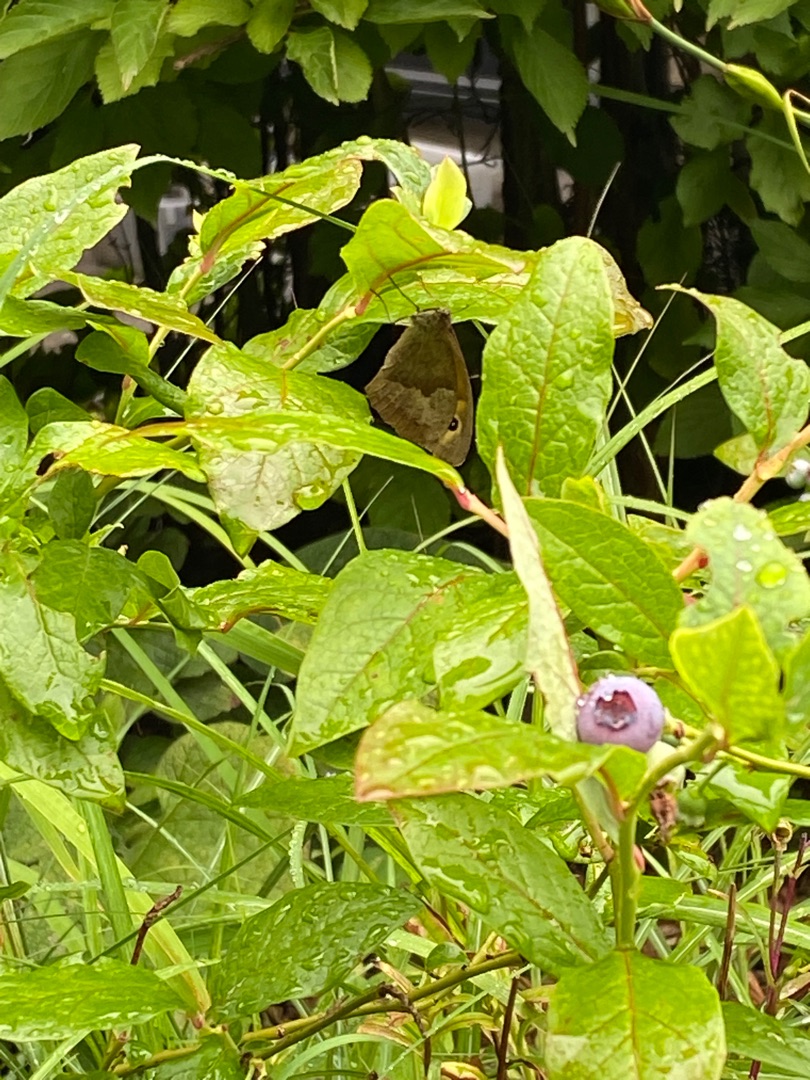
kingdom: Animalia
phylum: Arthropoda
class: Insecta
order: Lepidoptera
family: Nymphalidae
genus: Maniola
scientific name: Maniola jurtina
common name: Græsrandøje
